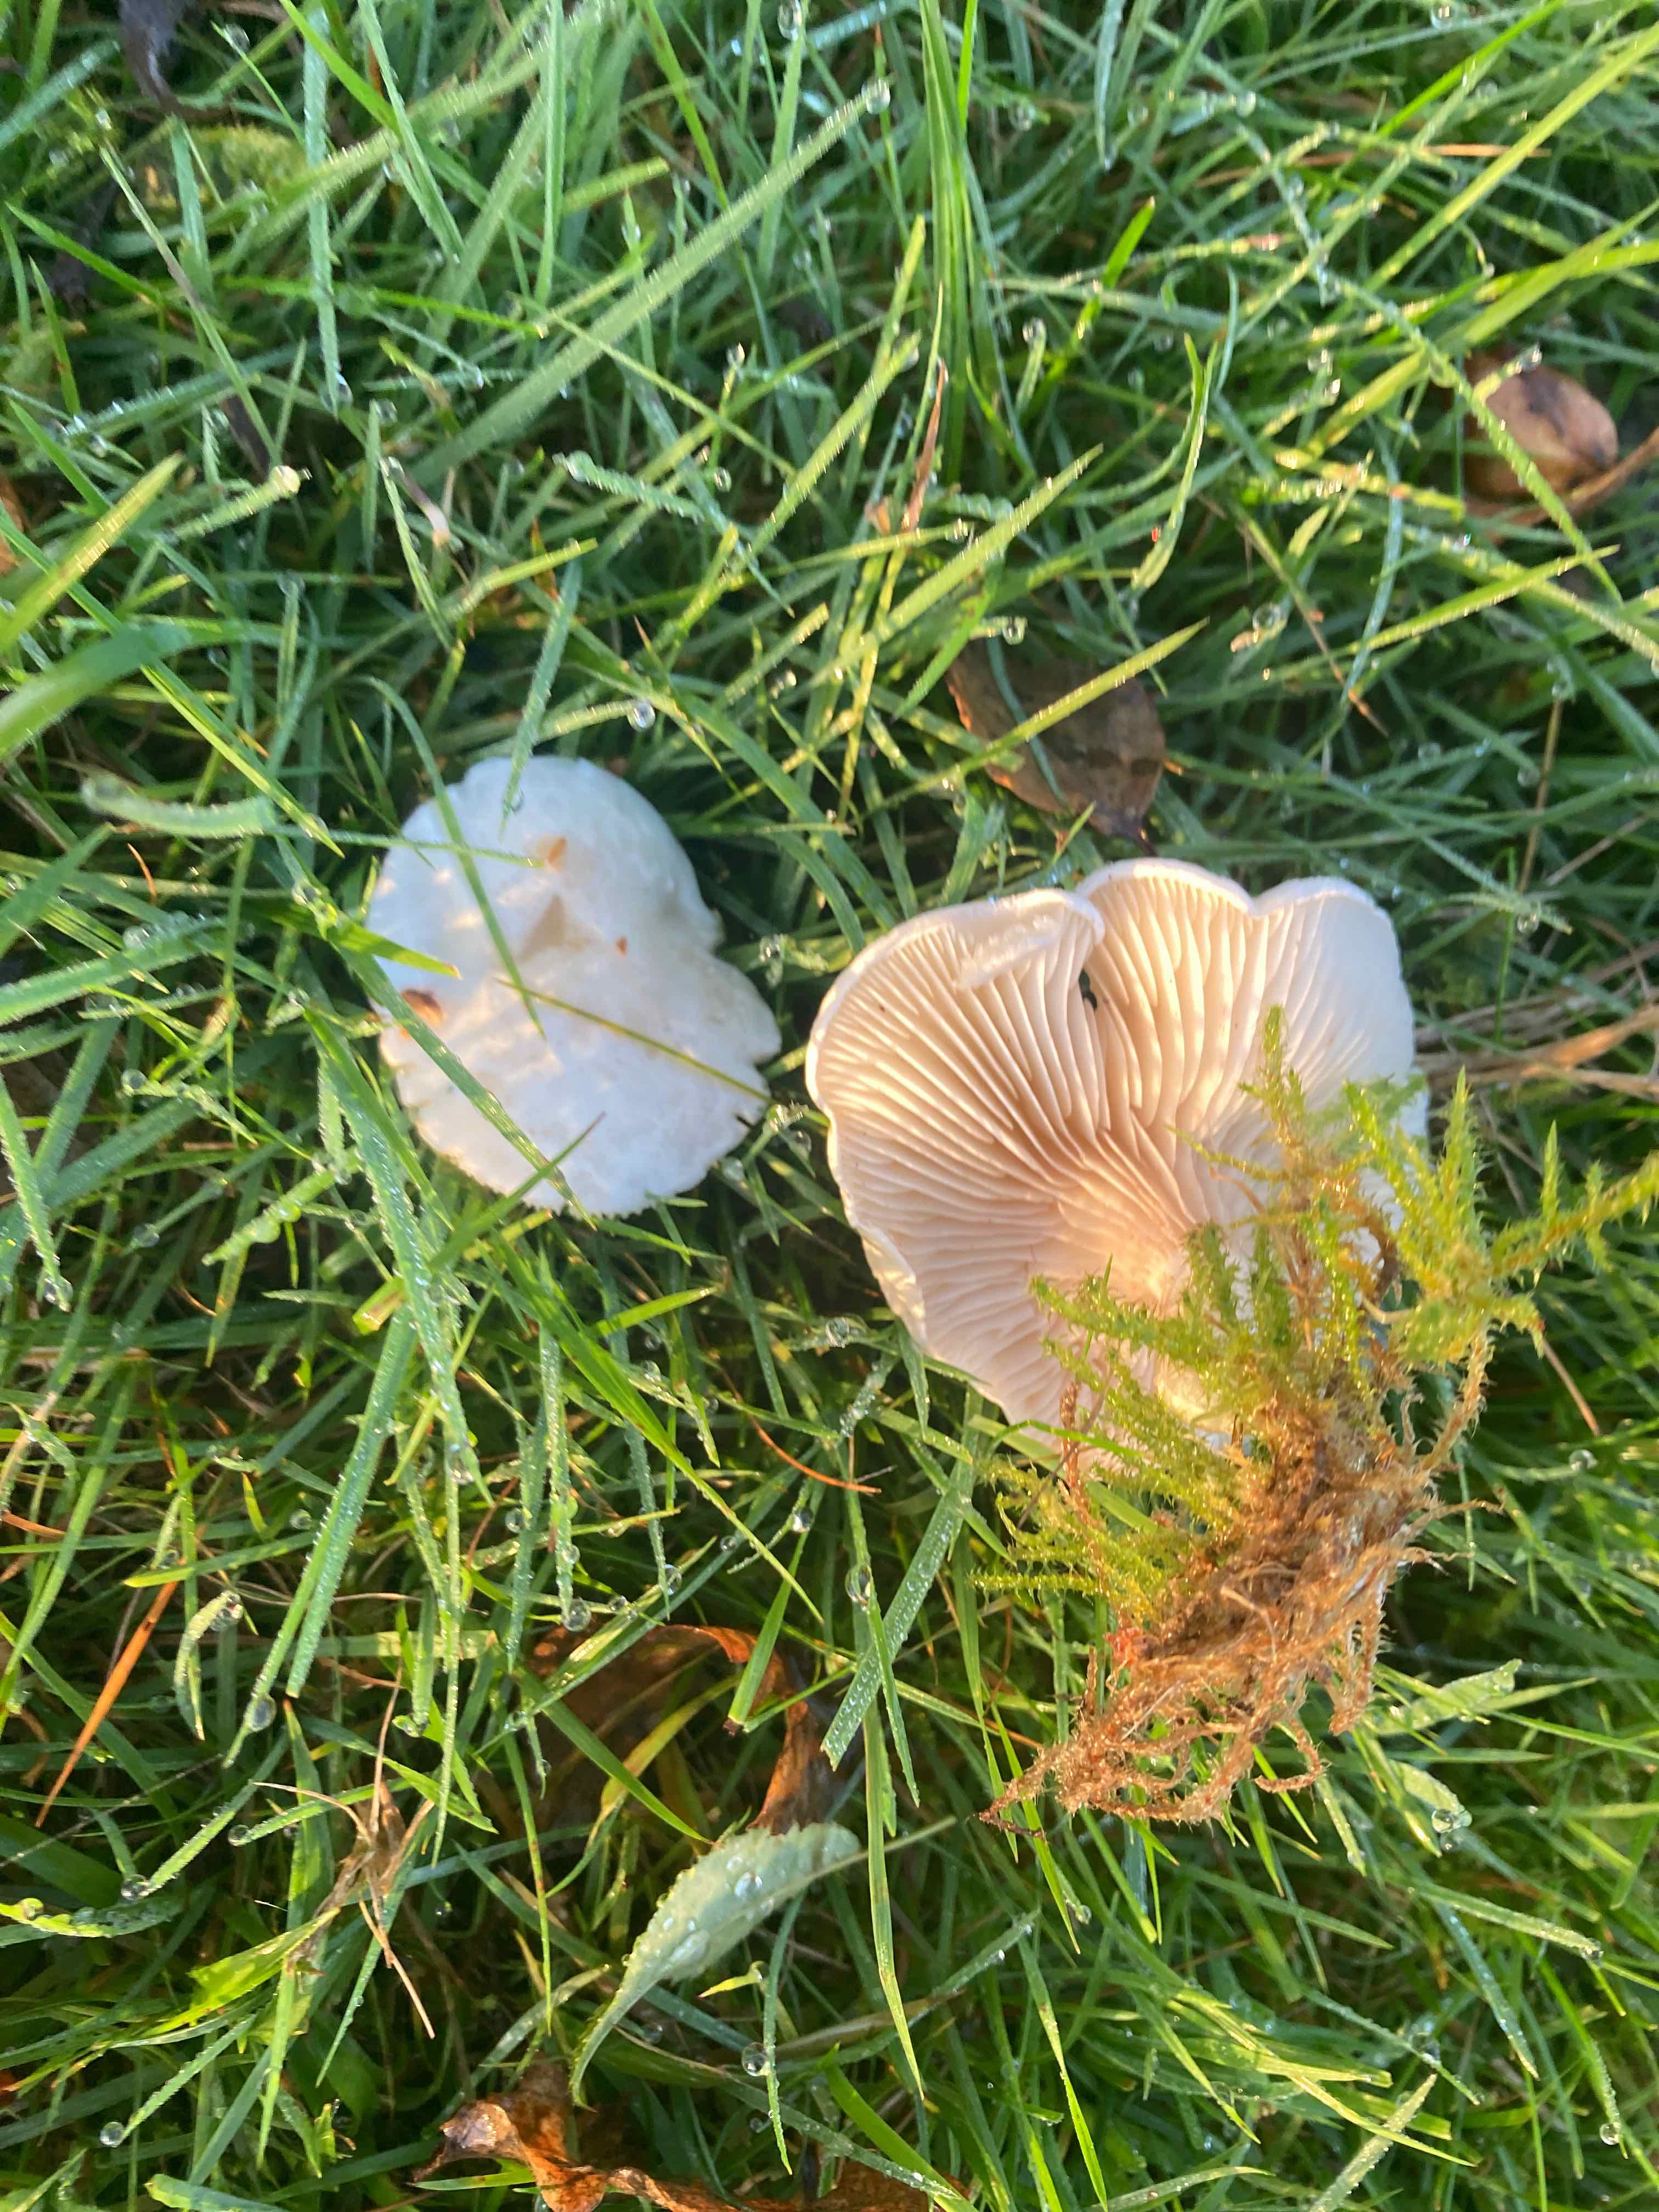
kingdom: Fungi
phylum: Basidiomycota
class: Agaricomycetes
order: Agaricales
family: Entolomataceae
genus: Clitopilus
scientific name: Clitopilus prunulus
